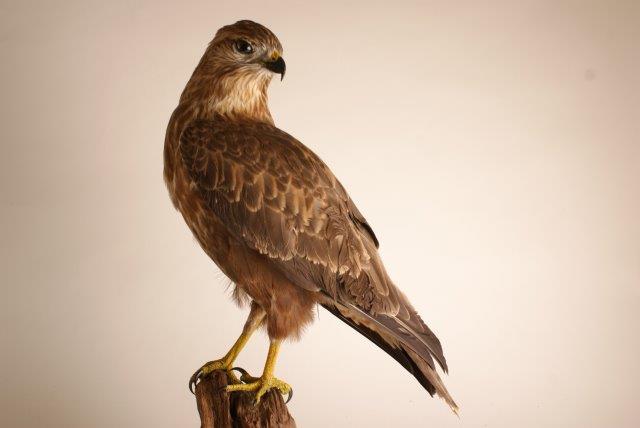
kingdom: Animalia
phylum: Chordata
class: Aves
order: Accipitriformes
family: Accipitridae
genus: Buteo
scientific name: Buteo rufinus
